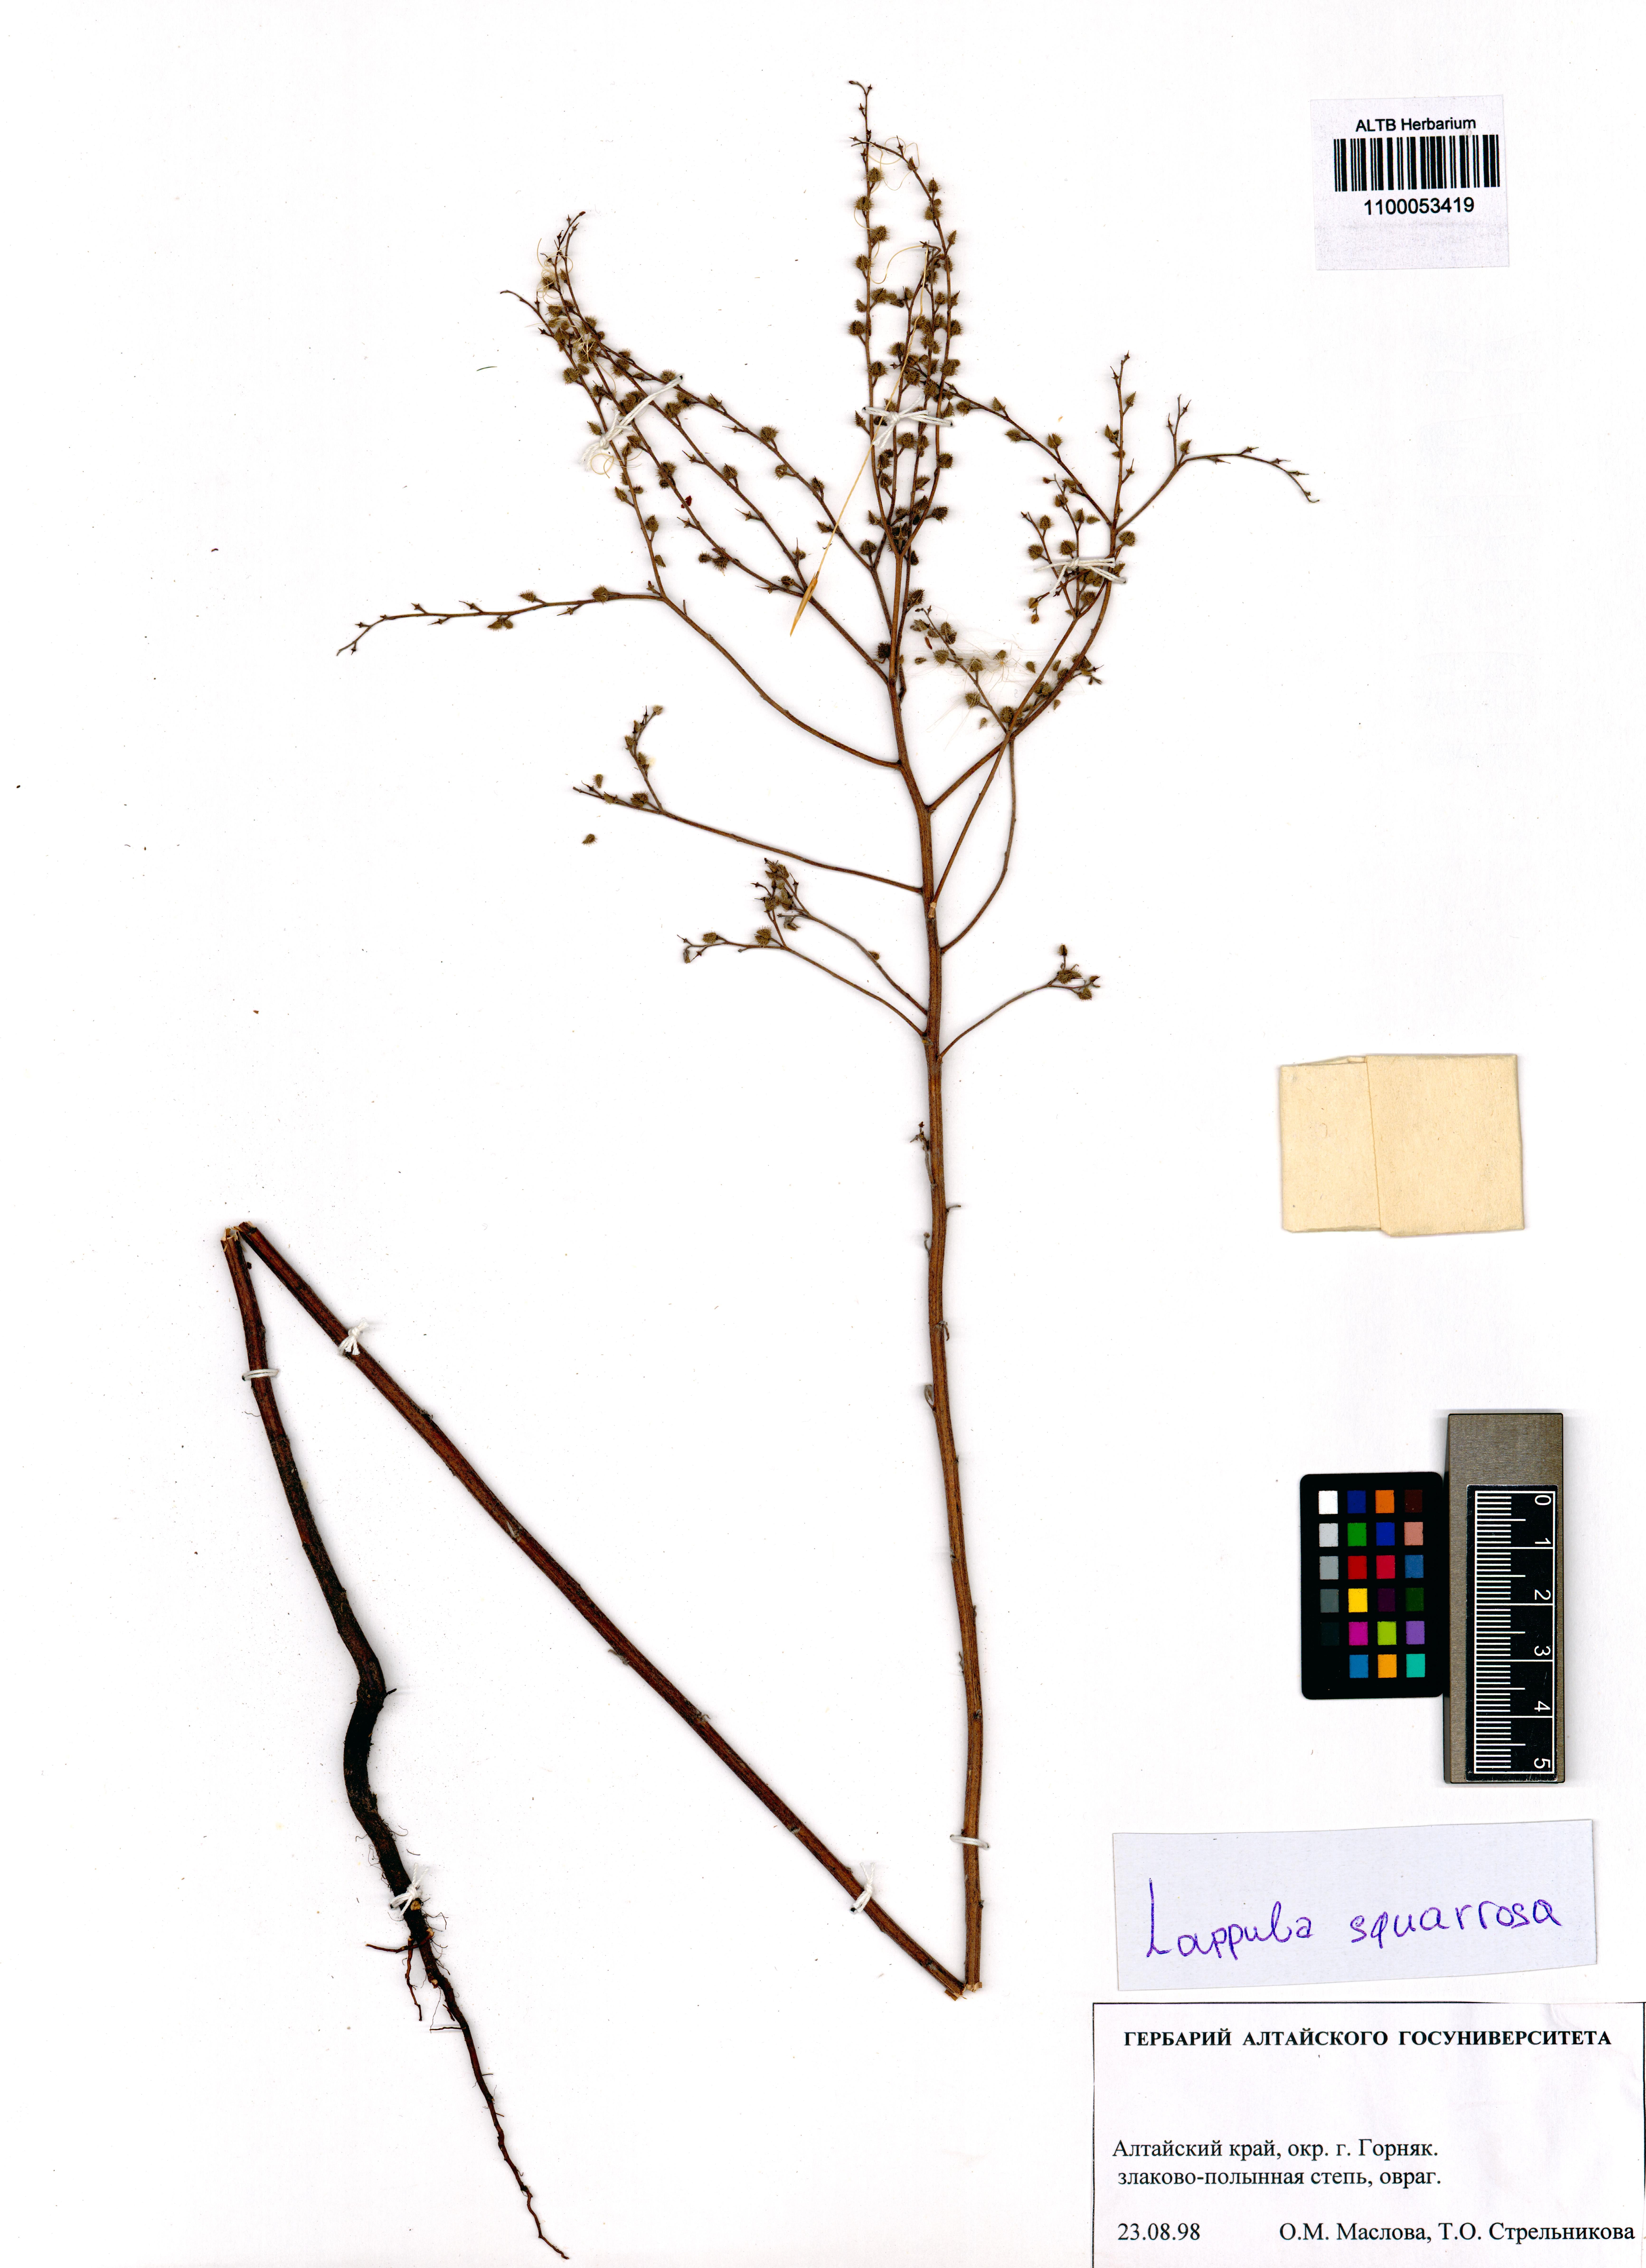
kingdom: Plantae
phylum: Tracheophyta
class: Magnoliopsida
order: Boraginales
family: Boraginaceae
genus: Lappula
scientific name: Lappula squarrosa
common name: European stickseed
